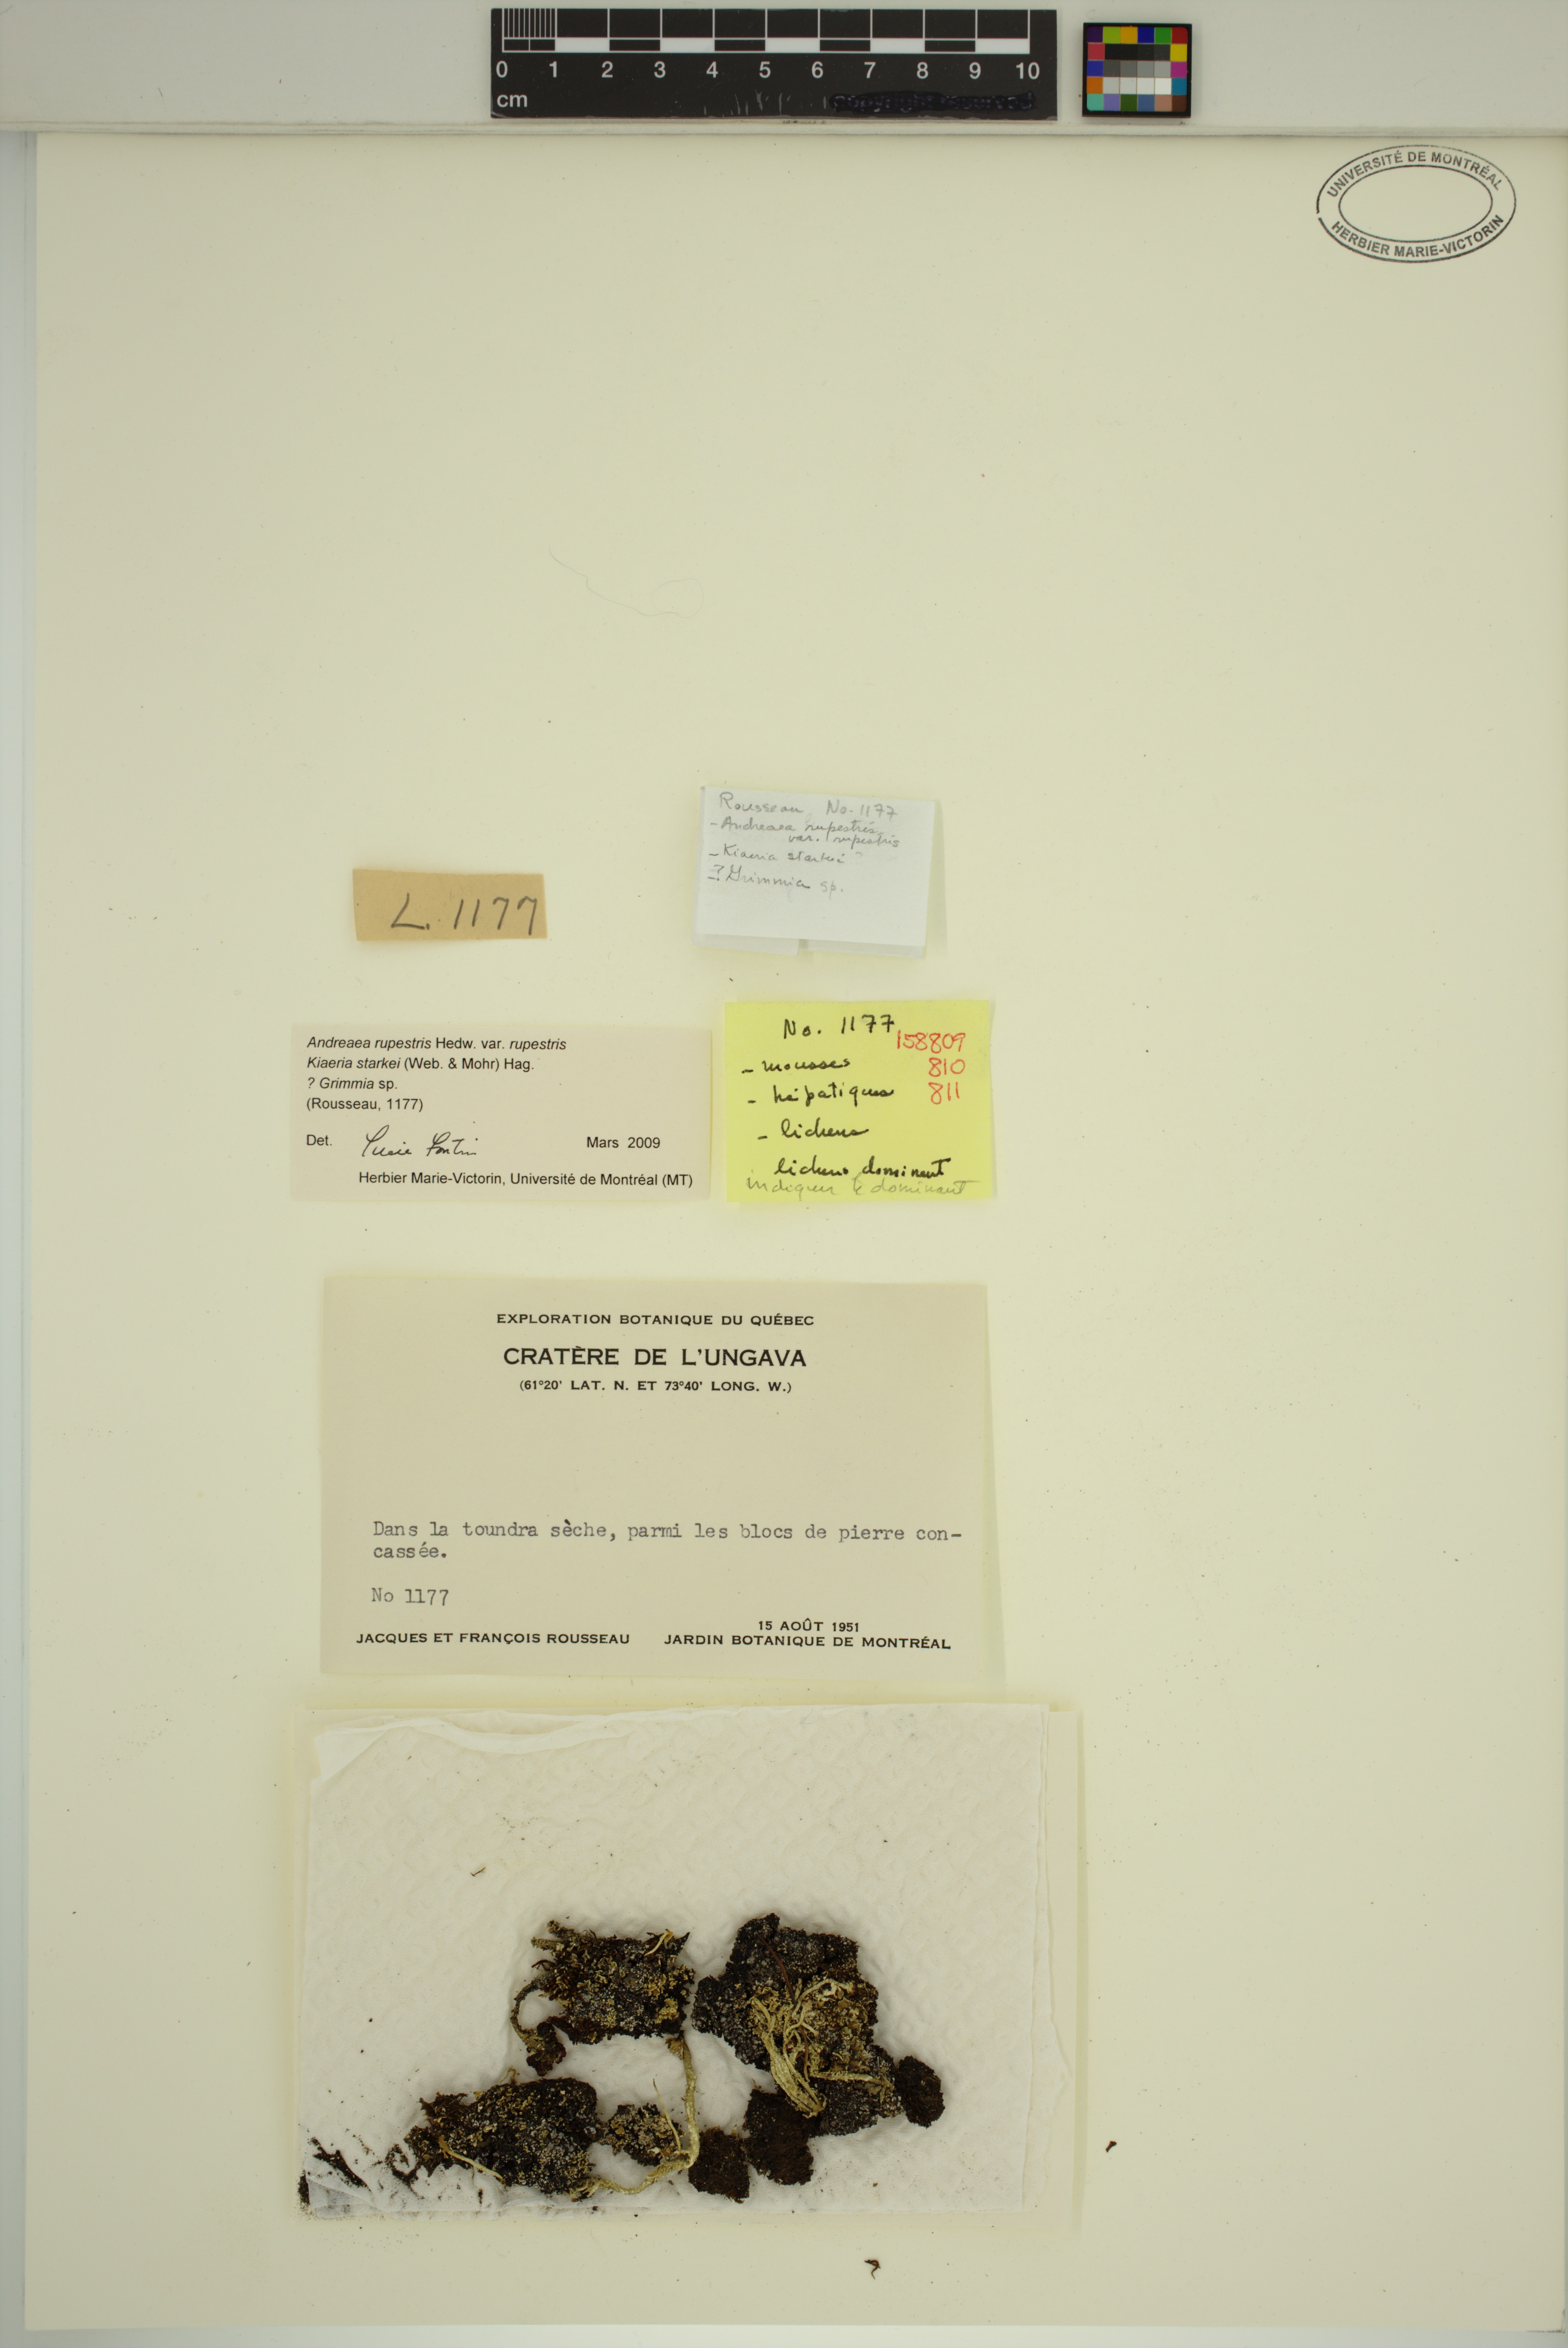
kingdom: Plantae
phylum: Bryophyta
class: Bryopsida
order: Dicranales
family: Rhabdoweisiaceae
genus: Arctoa
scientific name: Arctoa starkei
